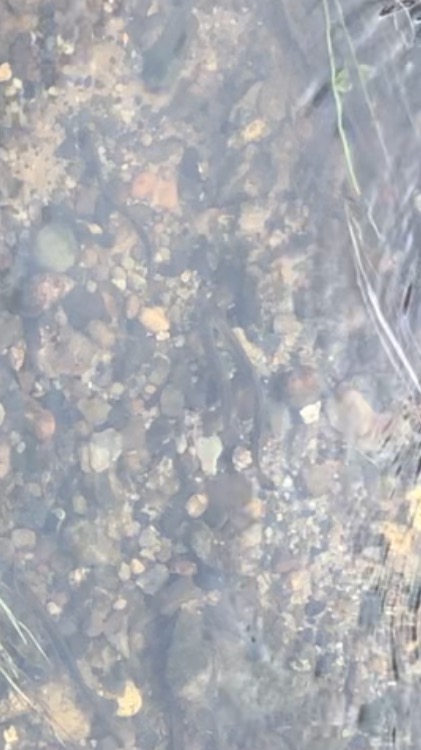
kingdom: Animalia
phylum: Chordata
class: Petromyzonti
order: Petromyzontiformes
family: Petromyzontidae
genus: Lampetra
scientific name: Lampetra planeri
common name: Bæklampret
